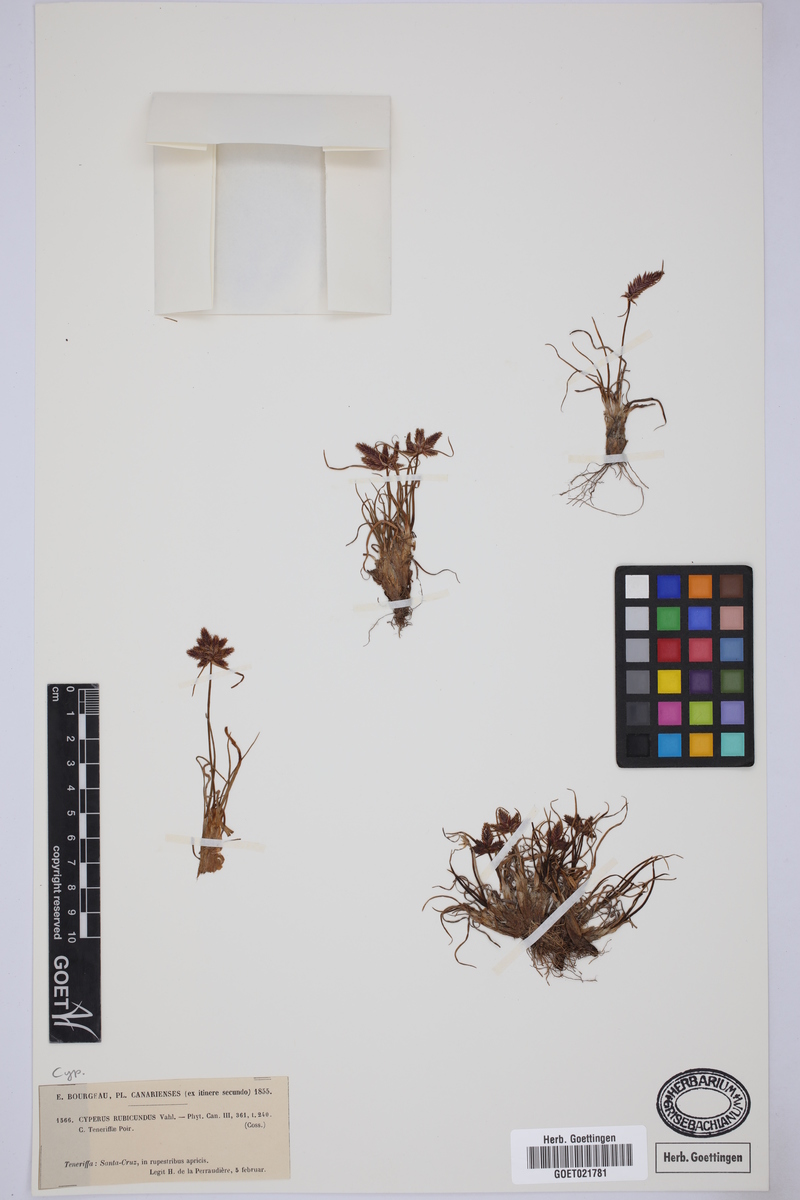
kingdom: Plantae
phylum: Tracheophyta
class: Liliopsida
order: Poales
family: Cyperaceae
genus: Cyperus
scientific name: Cyperus rubicundus
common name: Coco-grass
